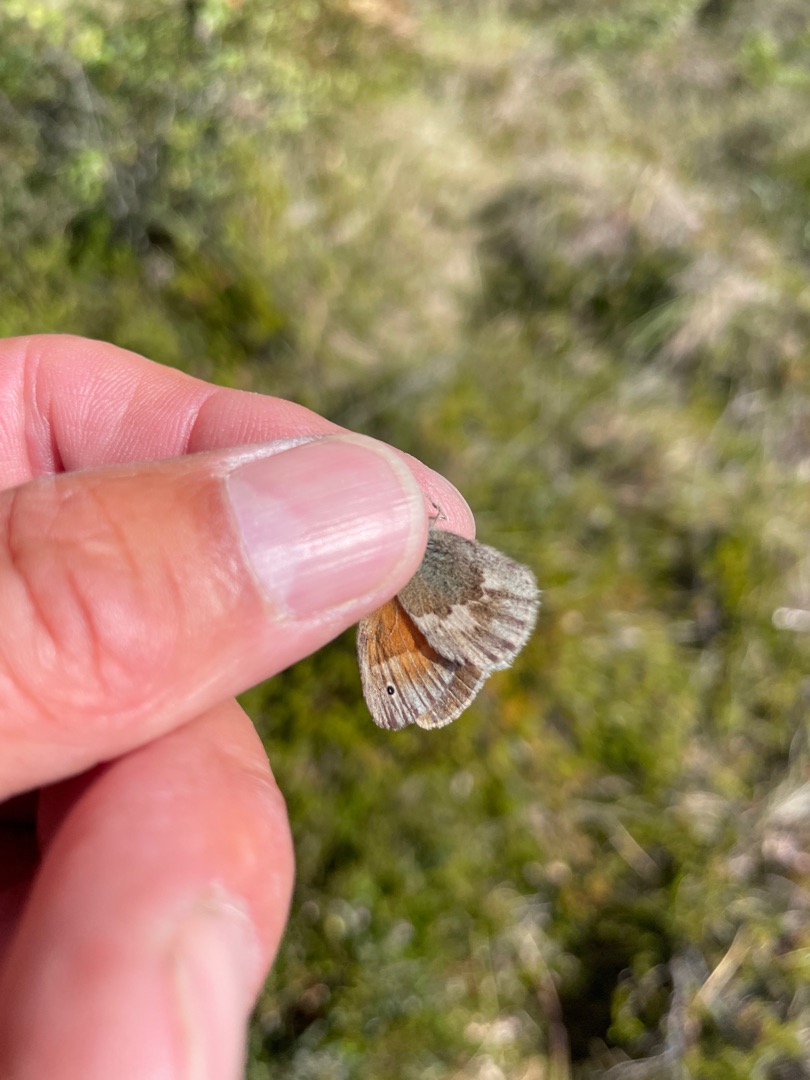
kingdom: Animalia
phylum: Arthropoda
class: Insecta
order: Lepidoptera
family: Nymphalidae
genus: Coenonympha
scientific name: Coenonympha pamphilus
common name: Okkergul randøje
